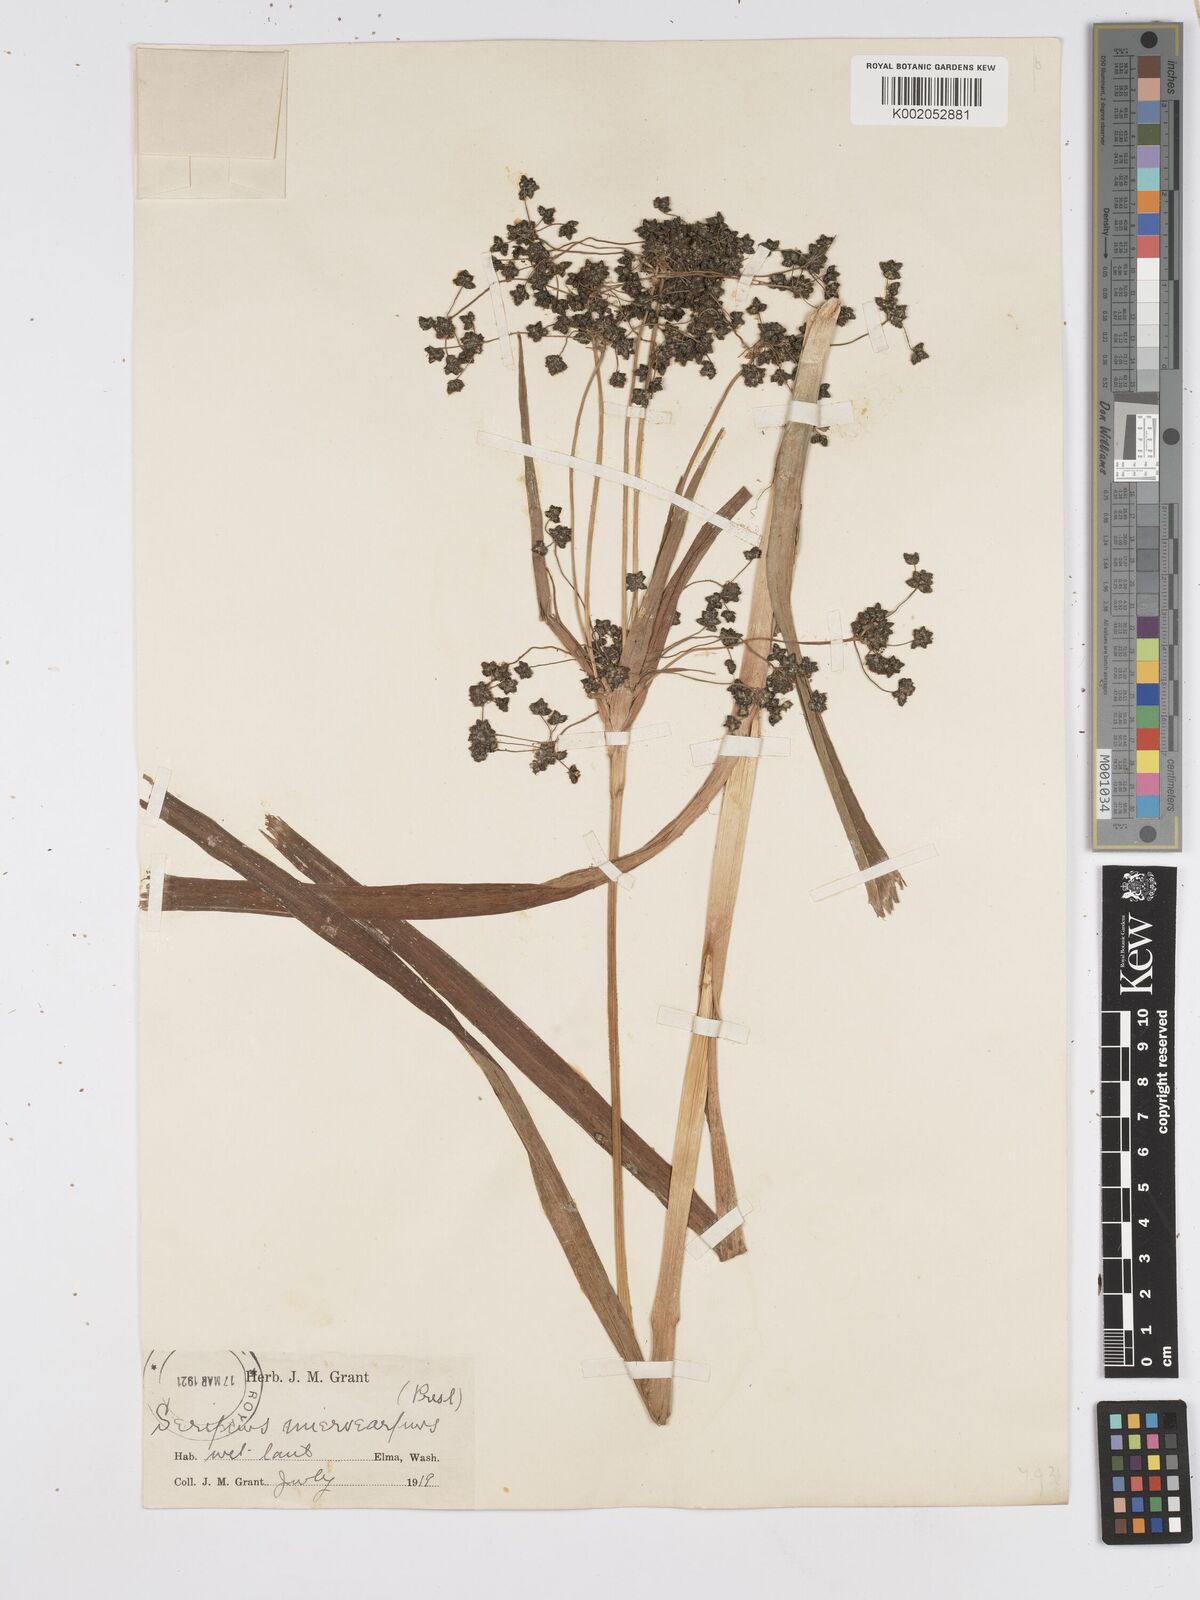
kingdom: Plantae
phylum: Tracheophyta
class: Liliopsida
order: Poales
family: Cyperaceae
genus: Scirpus
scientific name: Scirpus microcarpus
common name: Panicled bulrush
